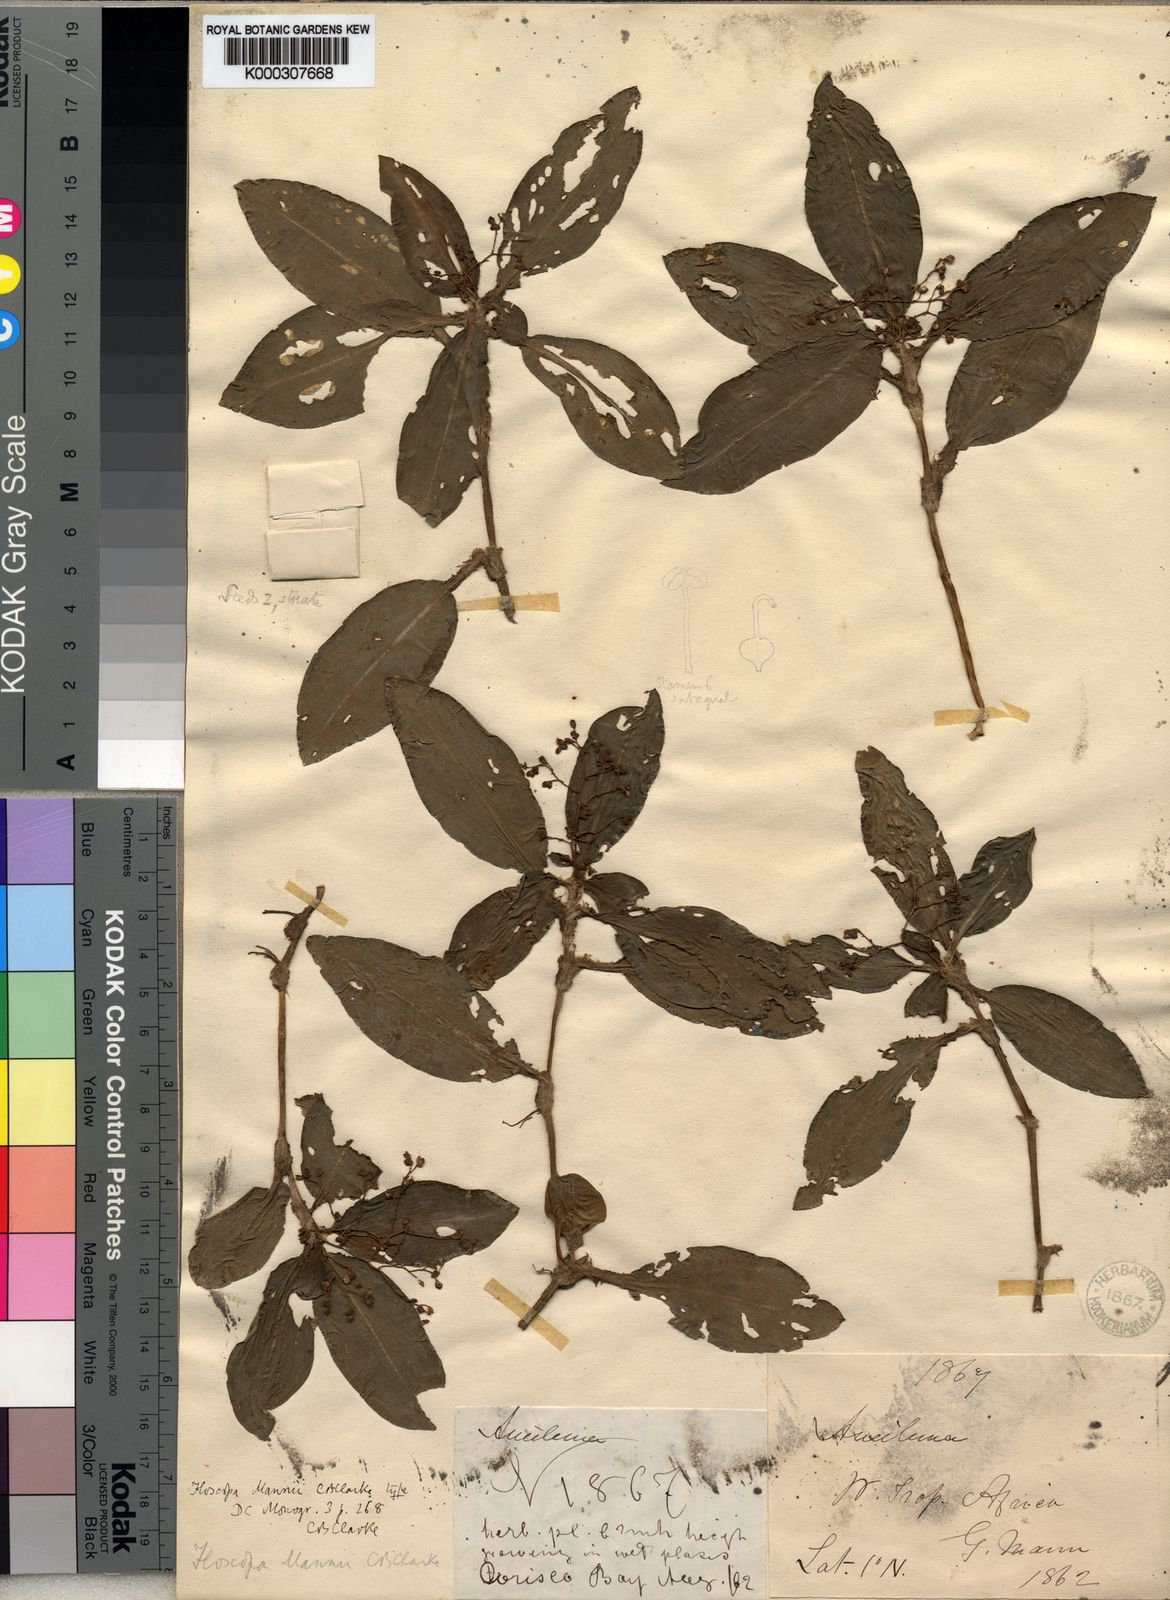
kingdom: Plantae
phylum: Tracheophyta
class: Liliopsida
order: Commelinales
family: Commelinaceae
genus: Floscopa
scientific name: Floscopa mannii
